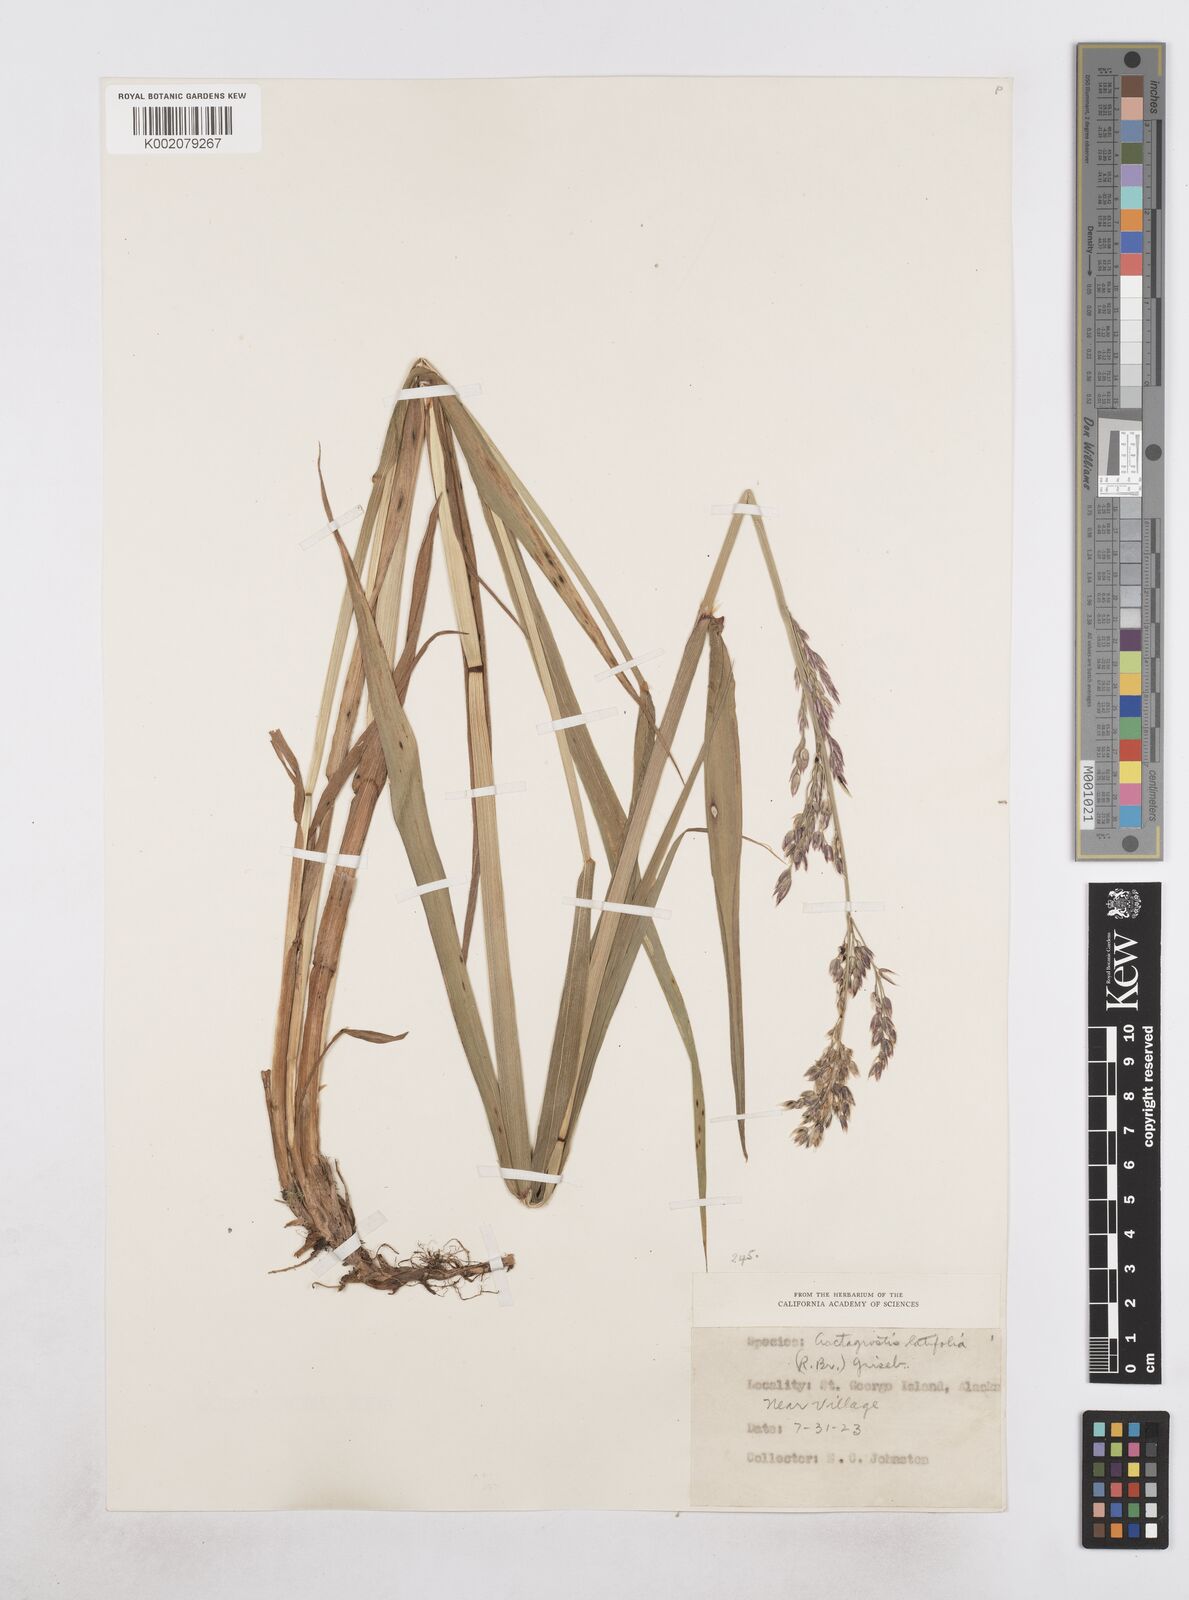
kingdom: Plantae
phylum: Tracheophyta
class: Liliopsida
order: Poales
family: Poaceae
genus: Arctagrostis
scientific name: Arctagrostis latifolia
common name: Arctic grass
